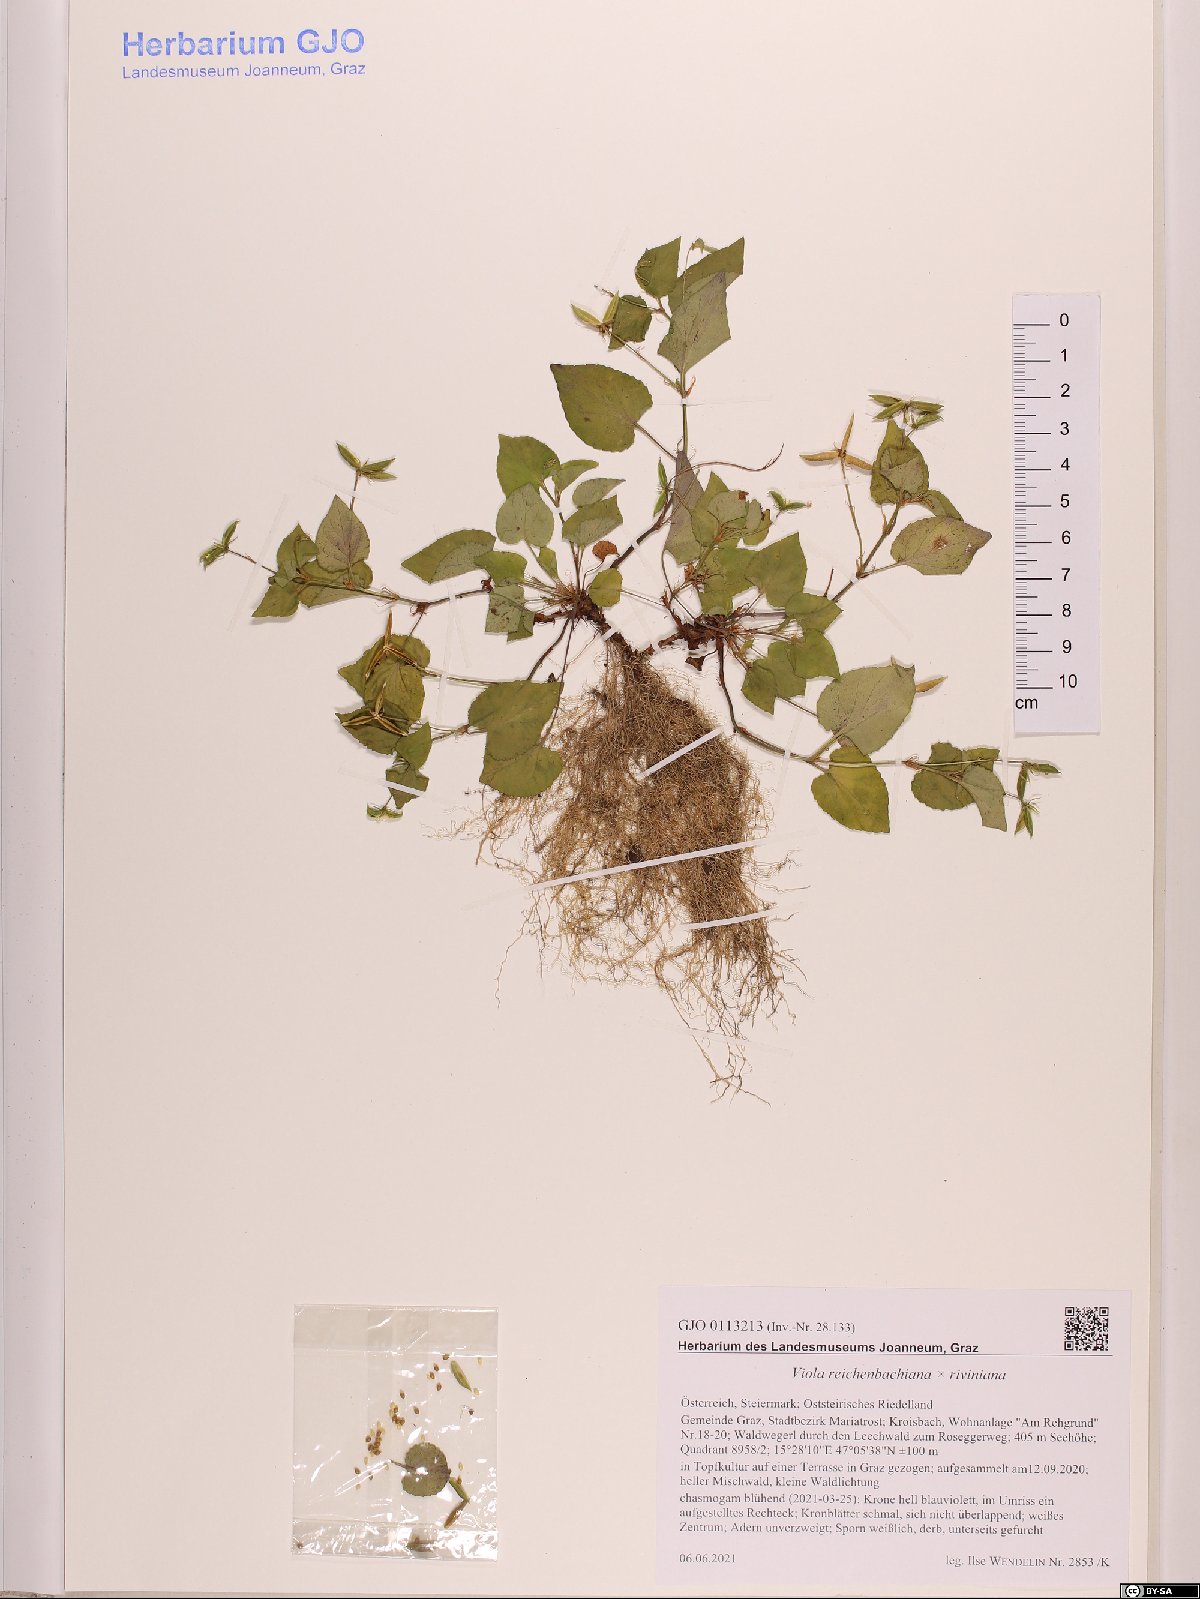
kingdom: Plantae
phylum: Tracheophyta
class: Magnoliopsida
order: Malpighiales
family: Violaceae
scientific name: Violaceae
